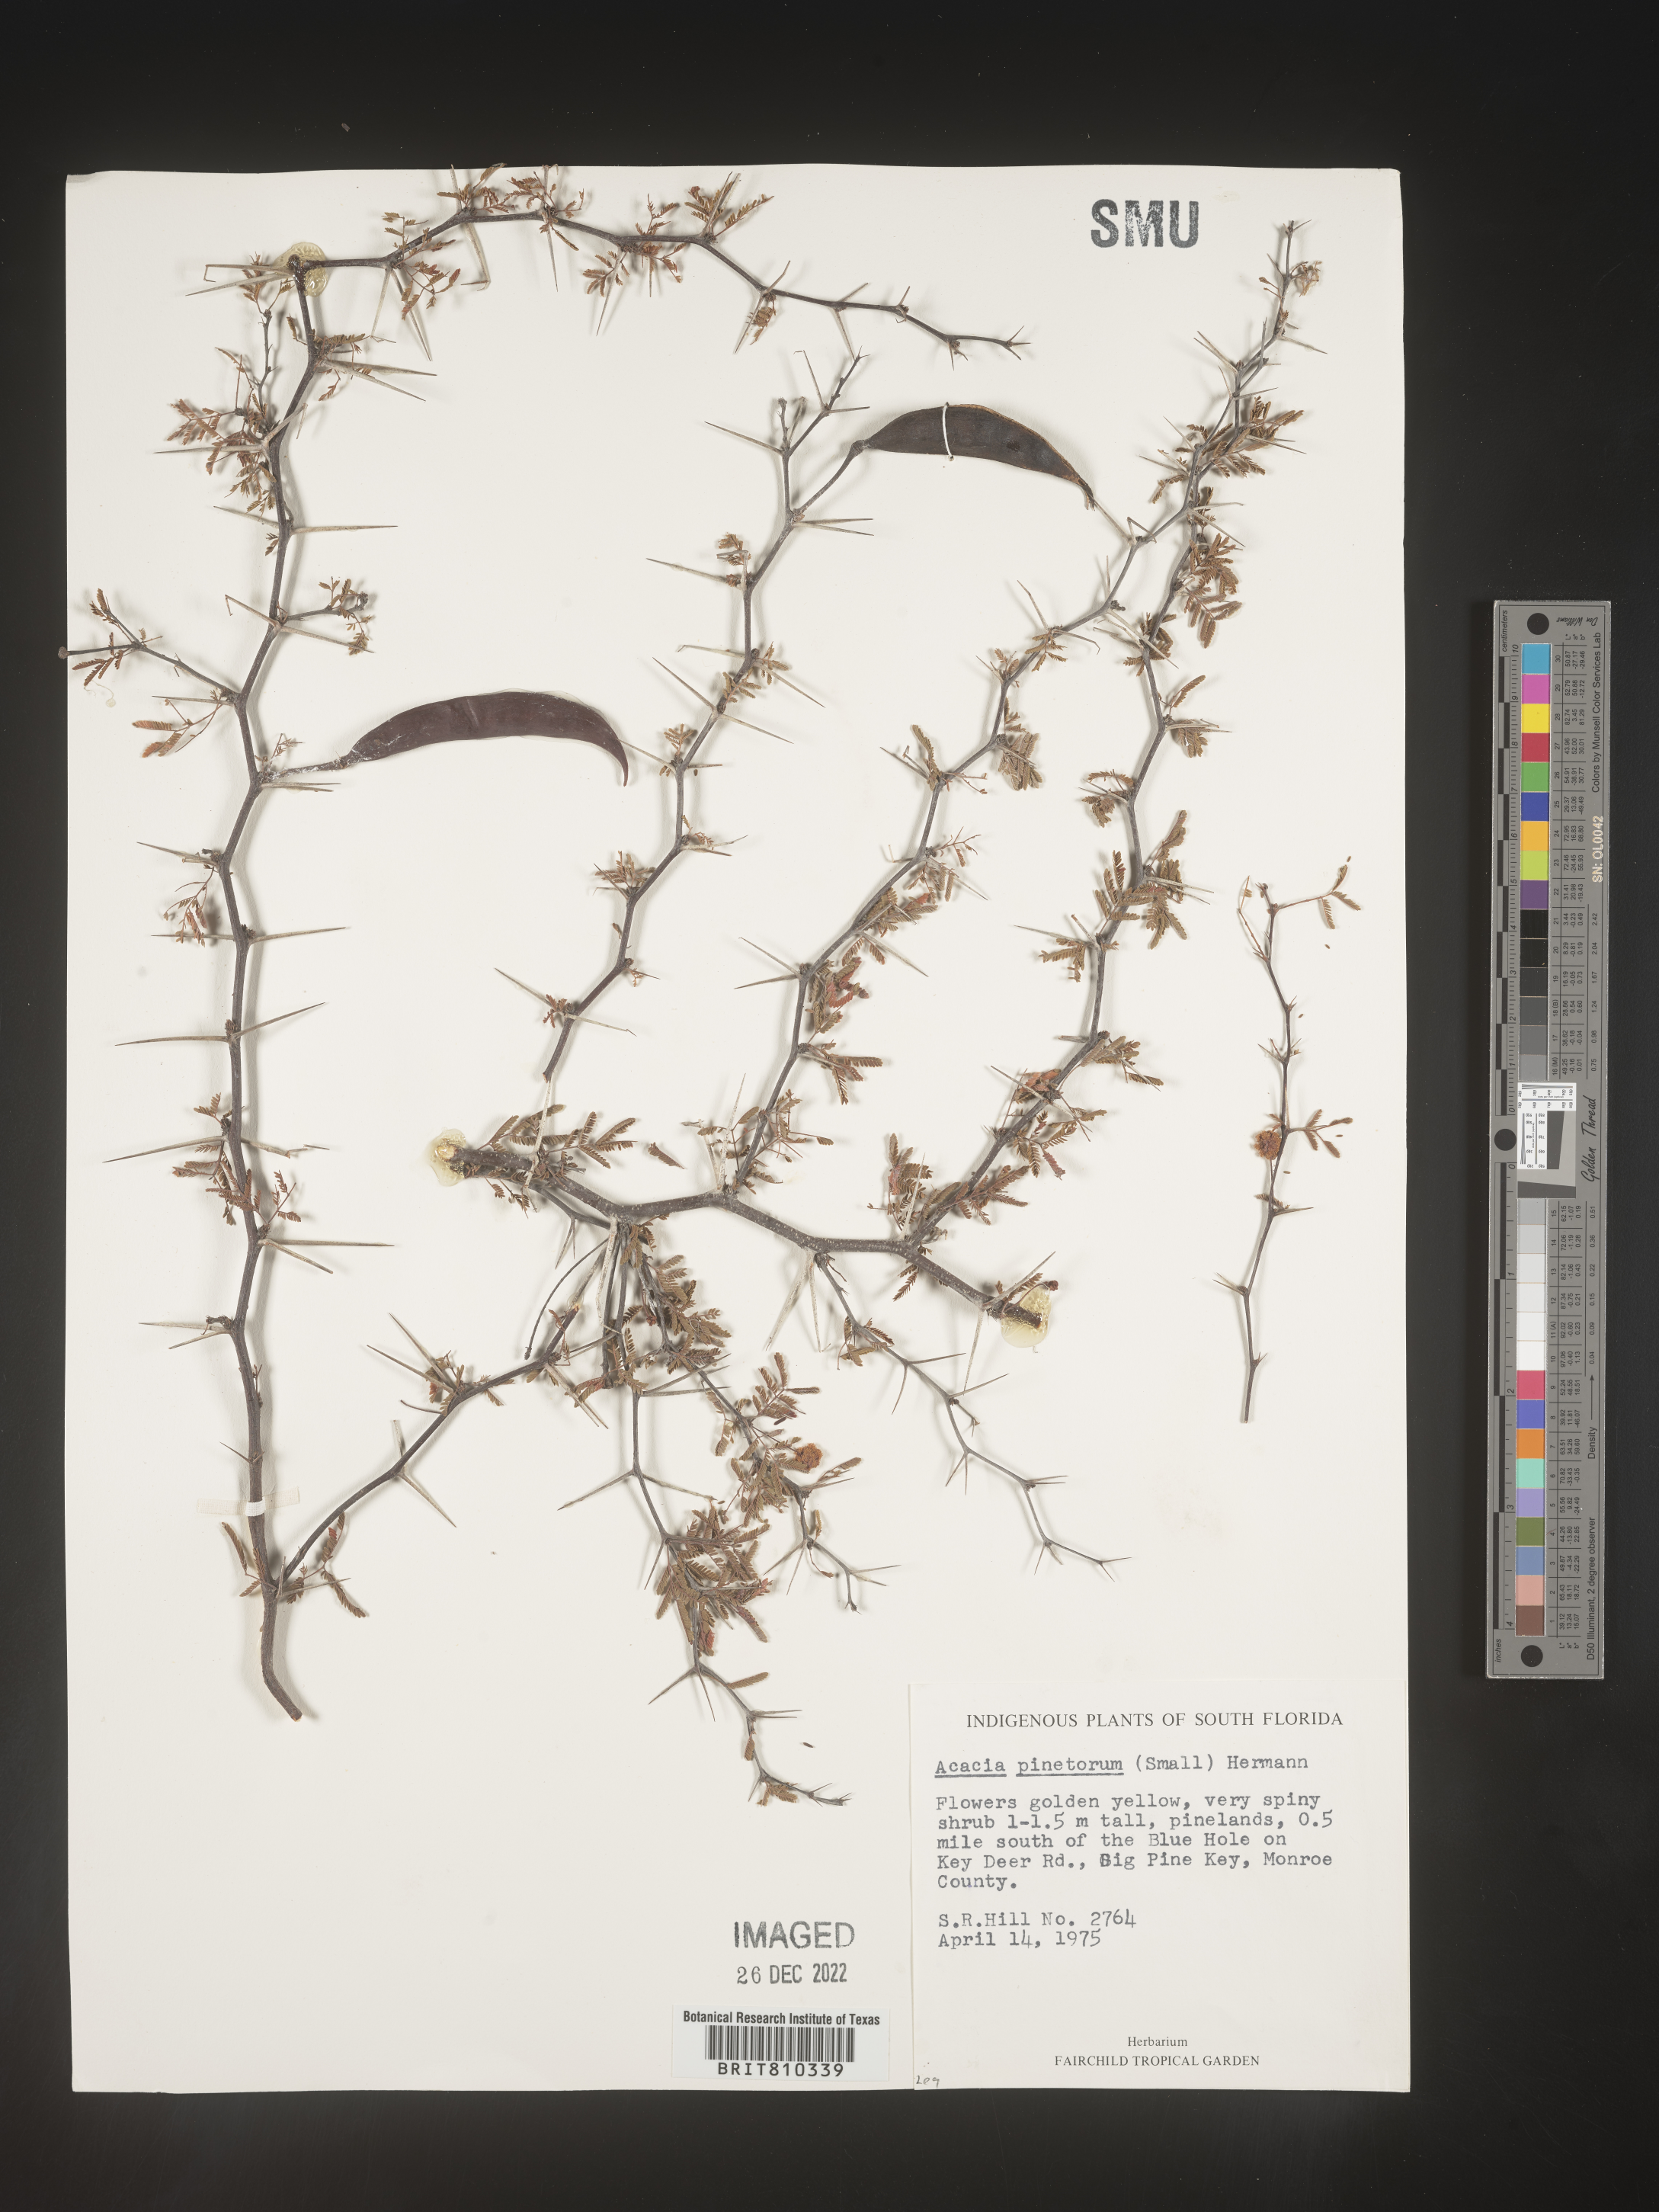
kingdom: Plantae
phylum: Tracheophyta
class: Magnoliopsida
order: Fabales
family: Fabaceae
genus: Acacia
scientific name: Acacia
